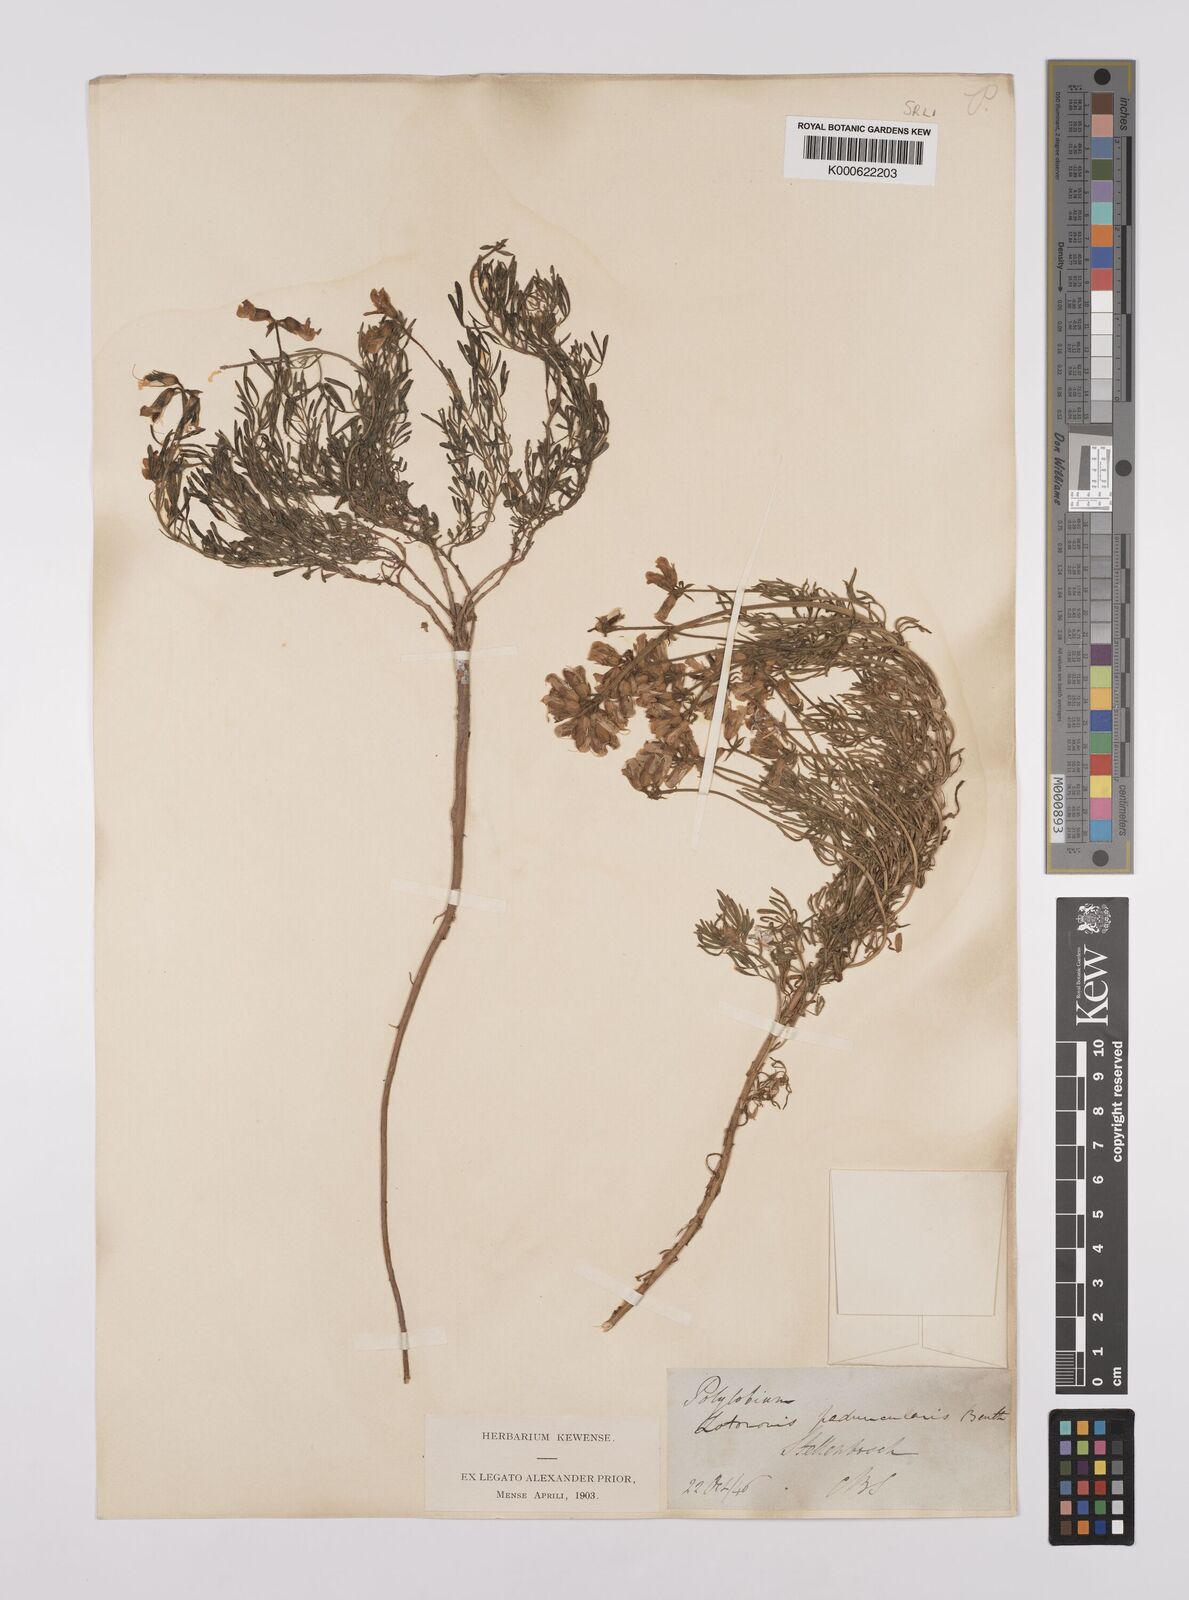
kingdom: Plantae
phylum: Tracheophyta
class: Magnoliopsida
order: Fabales
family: Fabaceae
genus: Lotononis
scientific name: Lotononis involucrata
